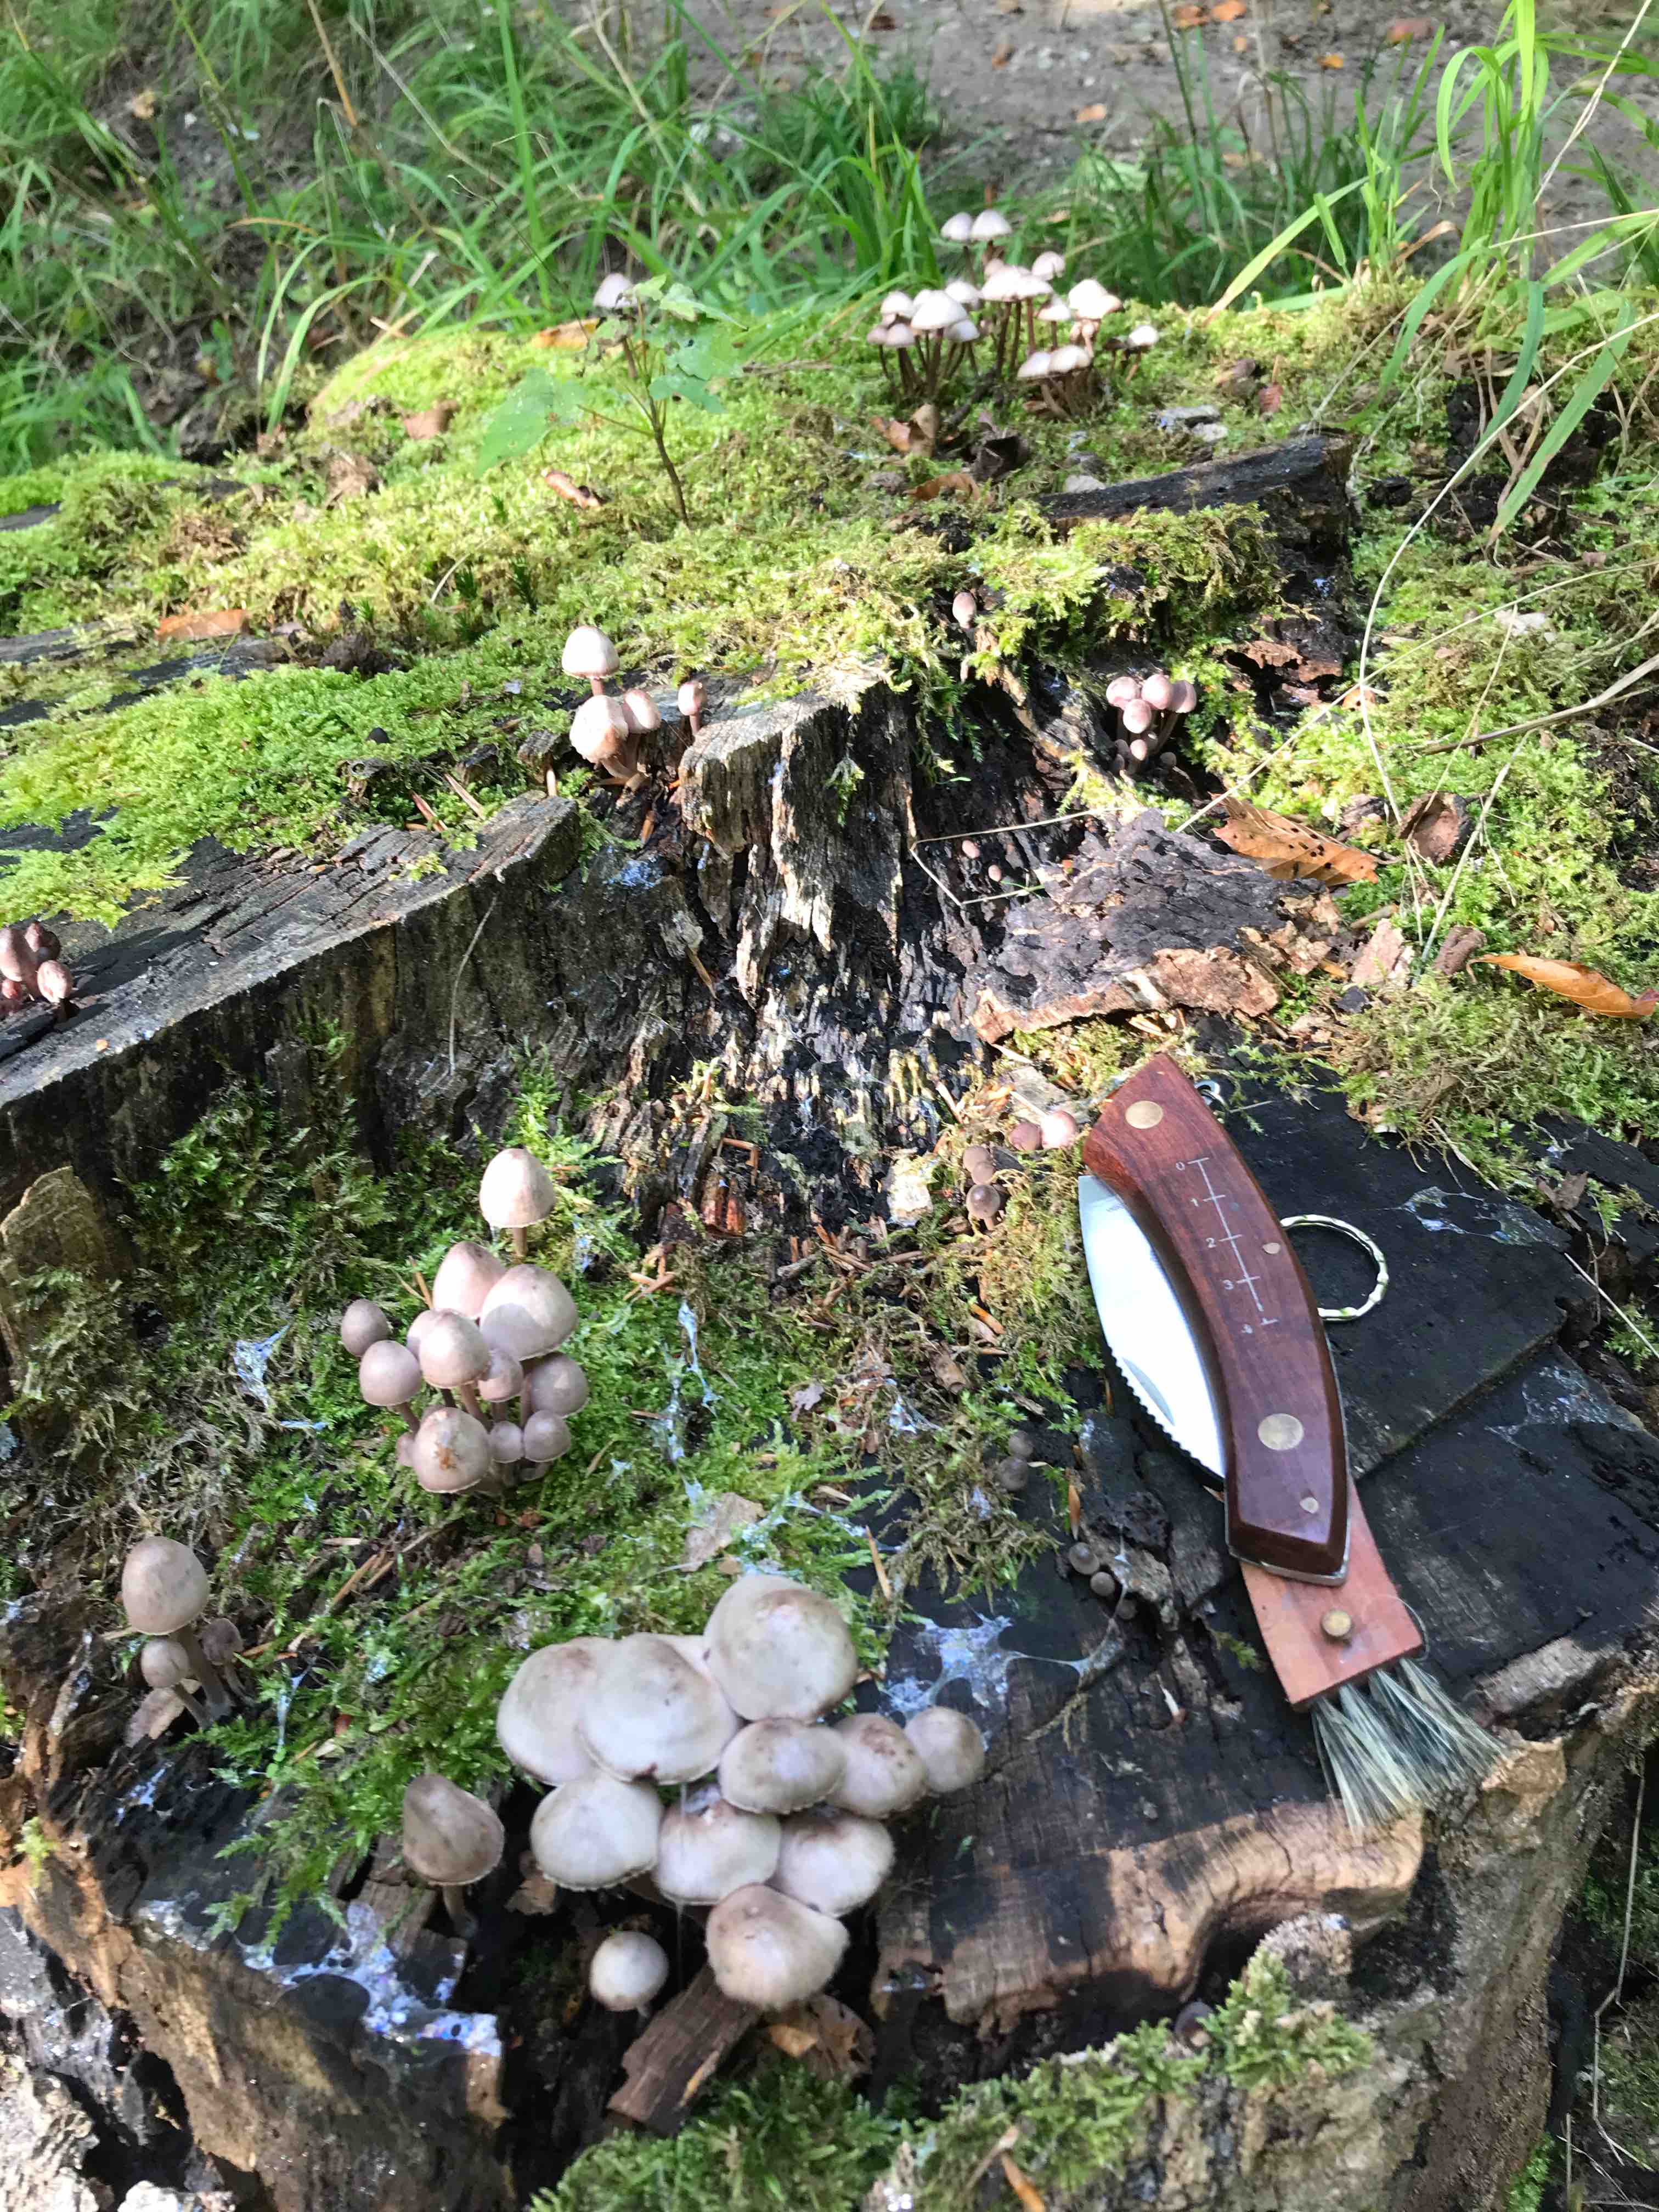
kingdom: Fungi
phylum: Basidiomycota
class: Agaricomycetes
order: Agaricales
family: Mycenaceae
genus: Mycena
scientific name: Mycena haematopus
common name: blødende huesvamp
